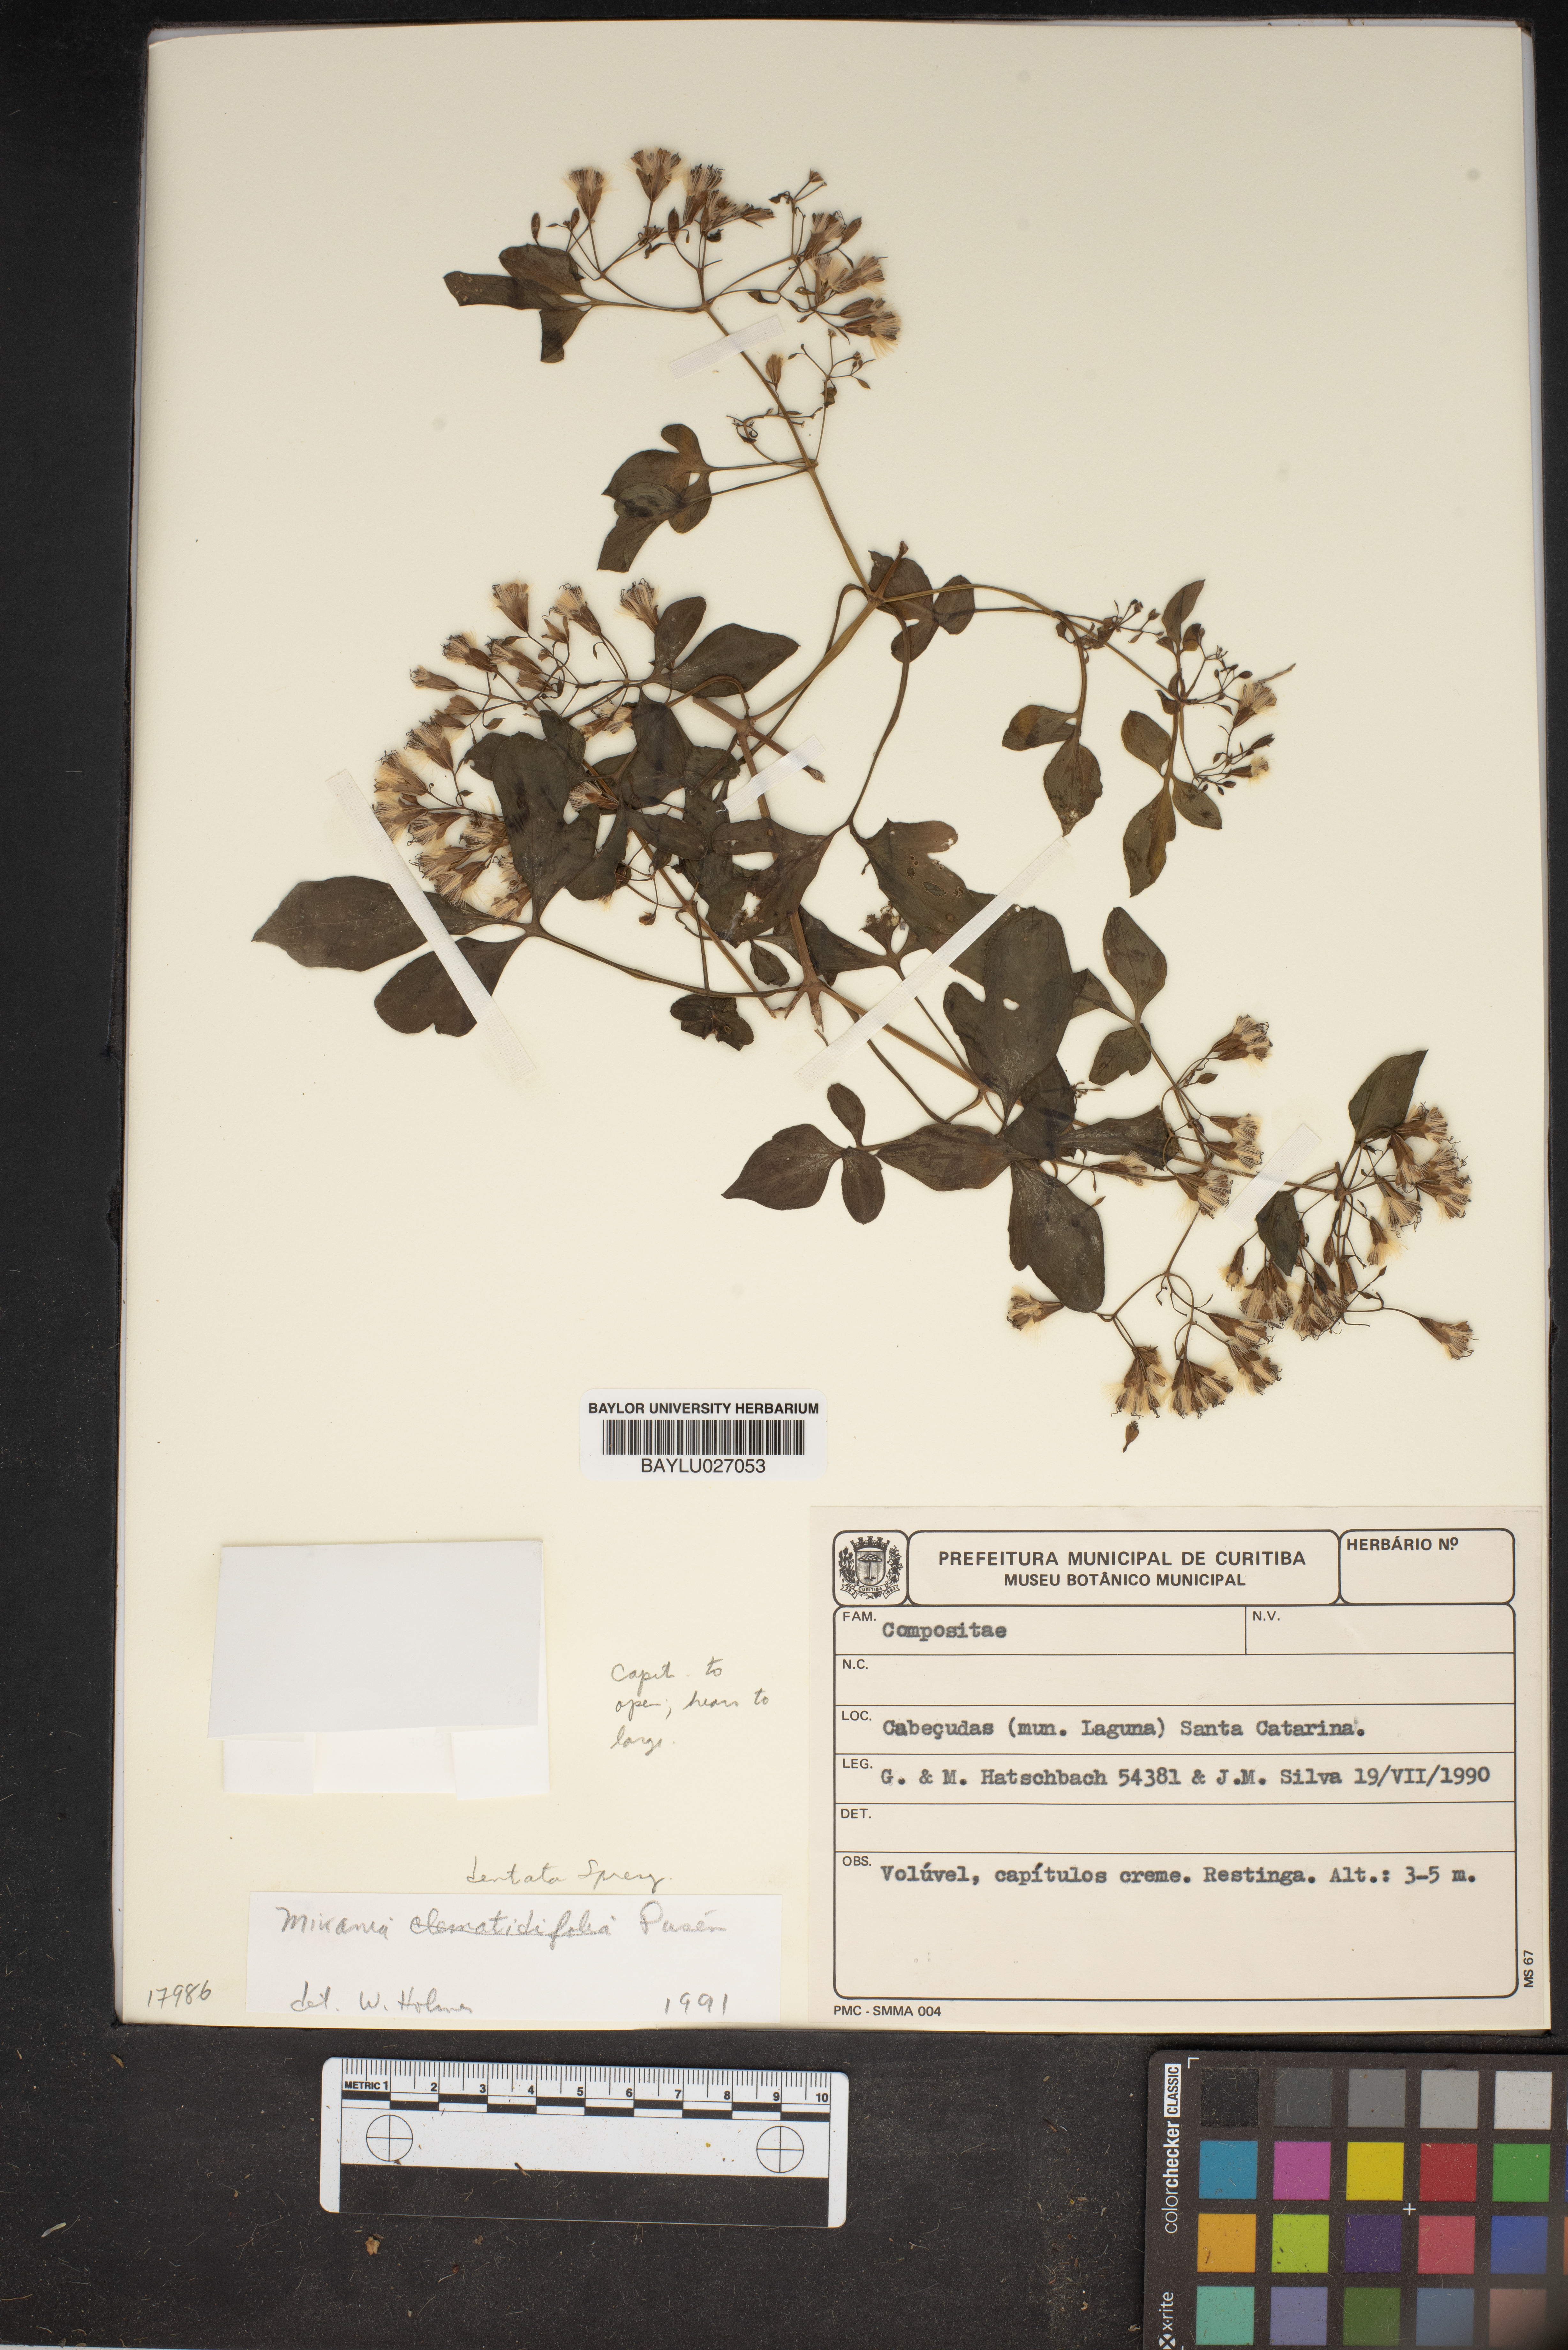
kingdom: Plantae
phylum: Tracheophyta
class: Magnoliopsida
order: Asterales
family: Asteraceae
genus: Mikania
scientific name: Mikania
